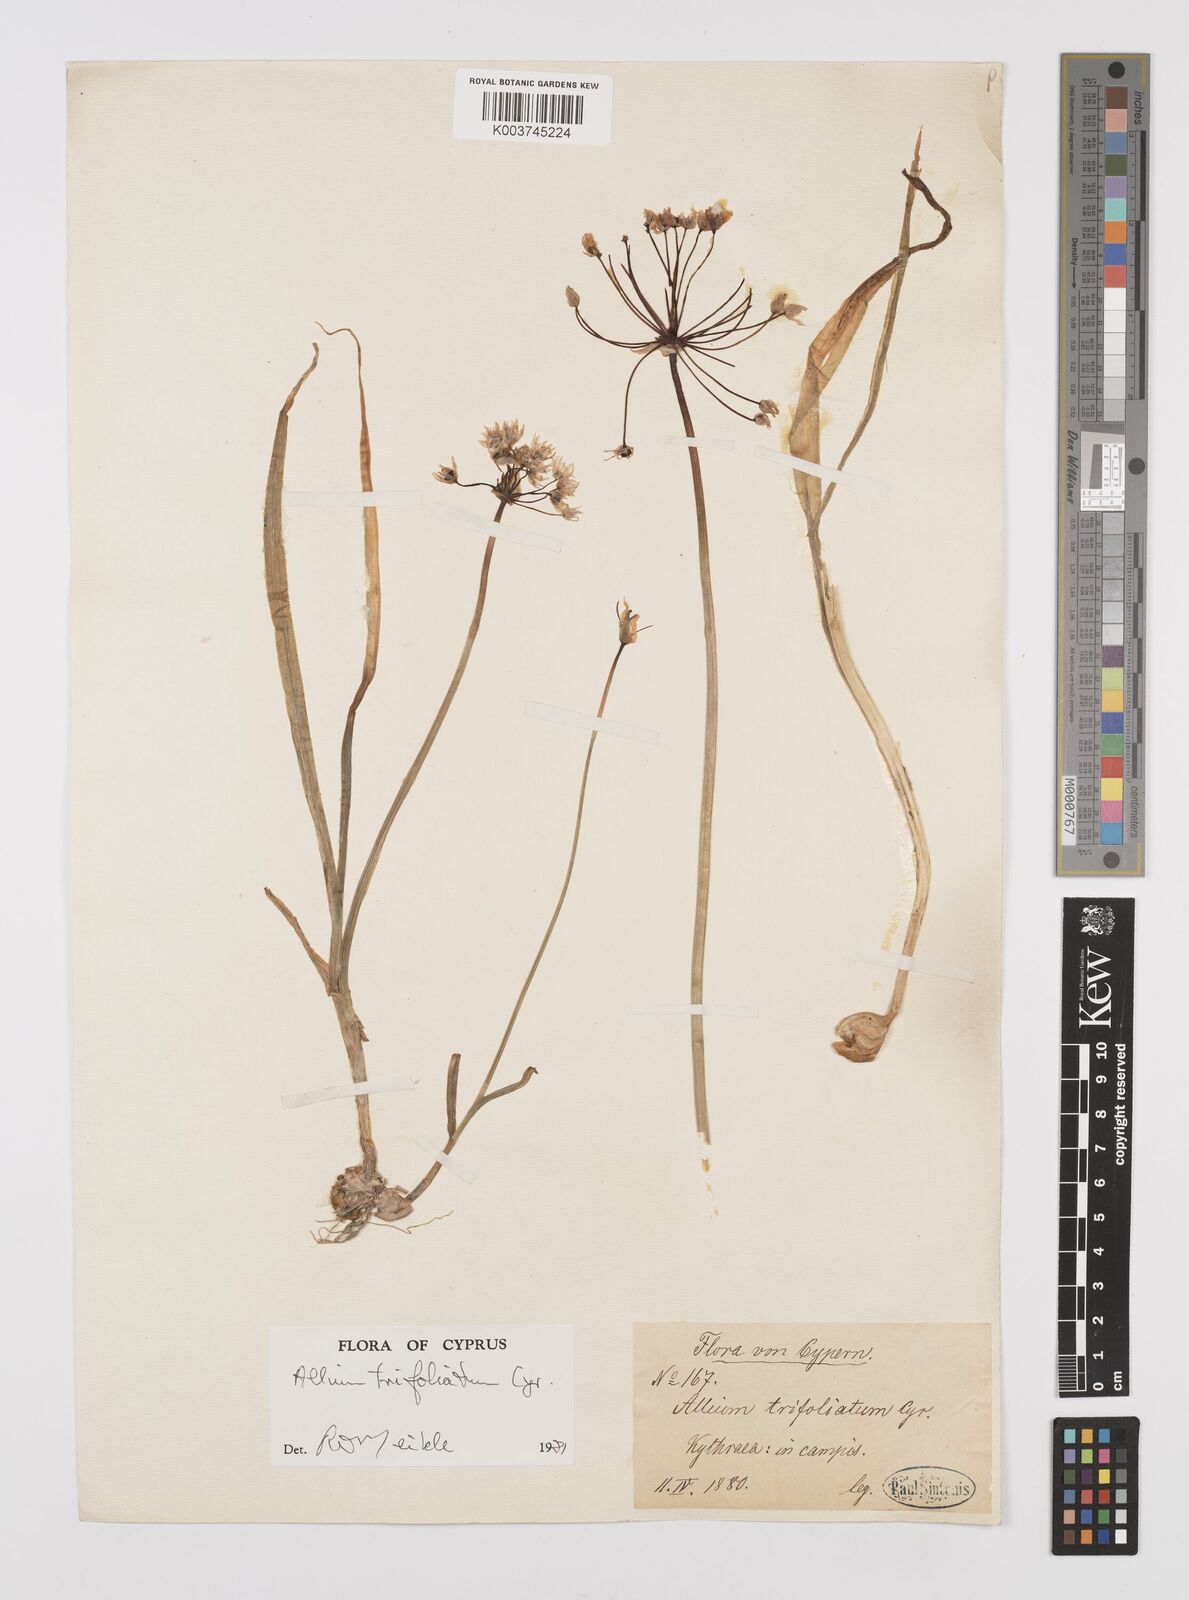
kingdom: Plantae
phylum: Tracheophyta
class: Liliopsida
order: Asparagales
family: Amaryllidaceae
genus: Allium
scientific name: Allium subhirsutum
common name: Hairy garlic
